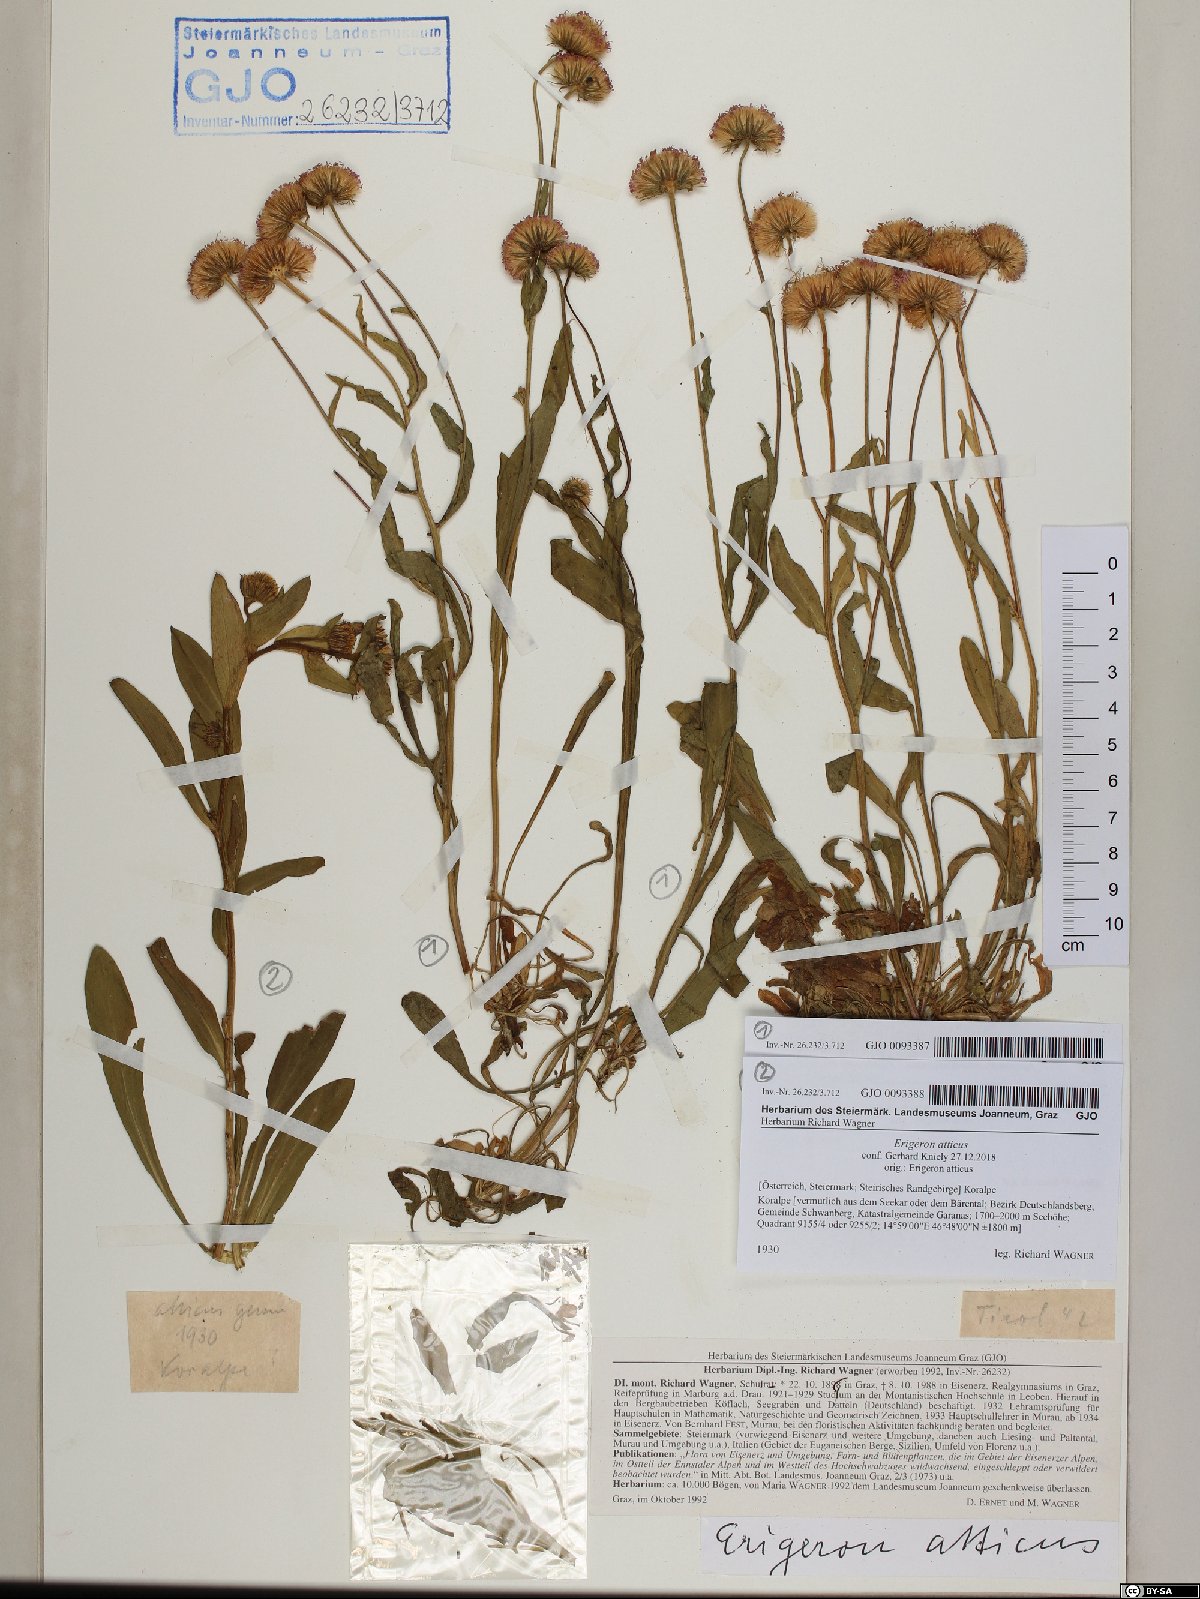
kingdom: Plantae
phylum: Tracheophyta
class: Magnoliopsida
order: Asterales
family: Asteraceae
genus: Erigeron
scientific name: Erigeron schleicheri
